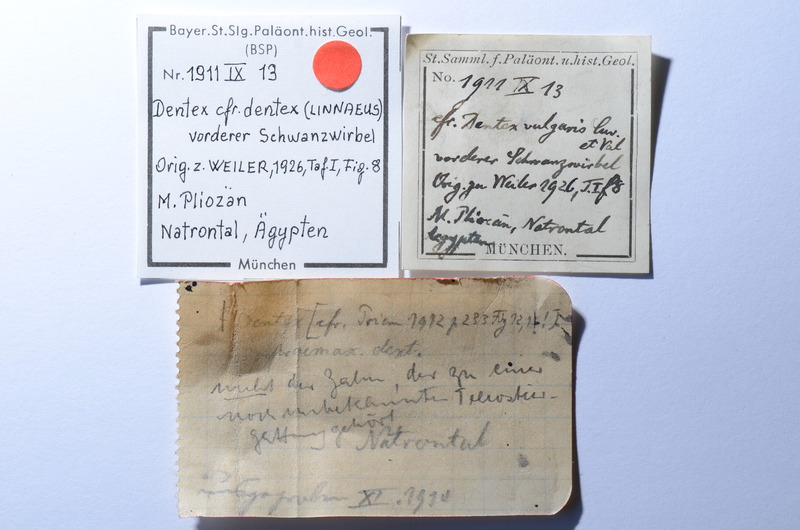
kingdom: Animalia
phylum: Chordata
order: Perciformes
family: Sparidae
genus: Dentex
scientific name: Dentex dentex
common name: Dentex
